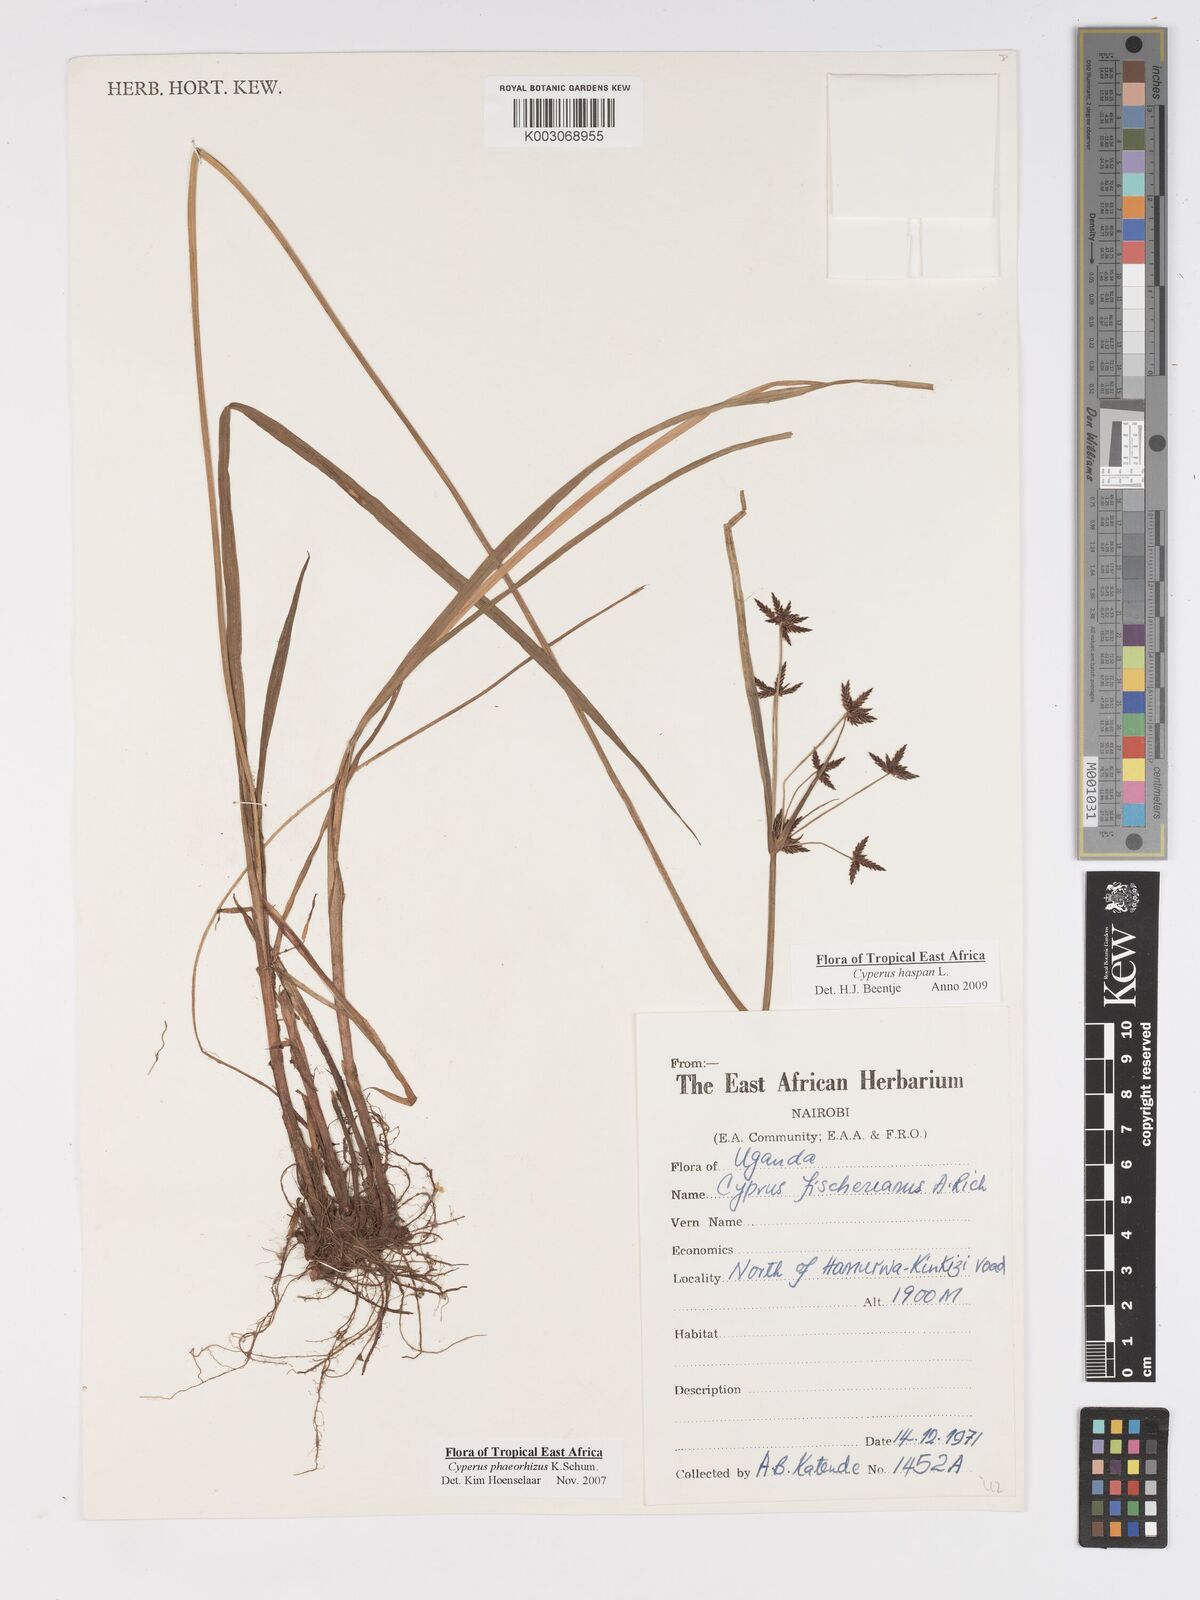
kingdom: Plantae
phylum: Tracheophyta
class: Liliopsida
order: Poales
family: Cyperaceae
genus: Cyperus
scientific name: Cyperus haspan
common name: Haspan flatsedge
